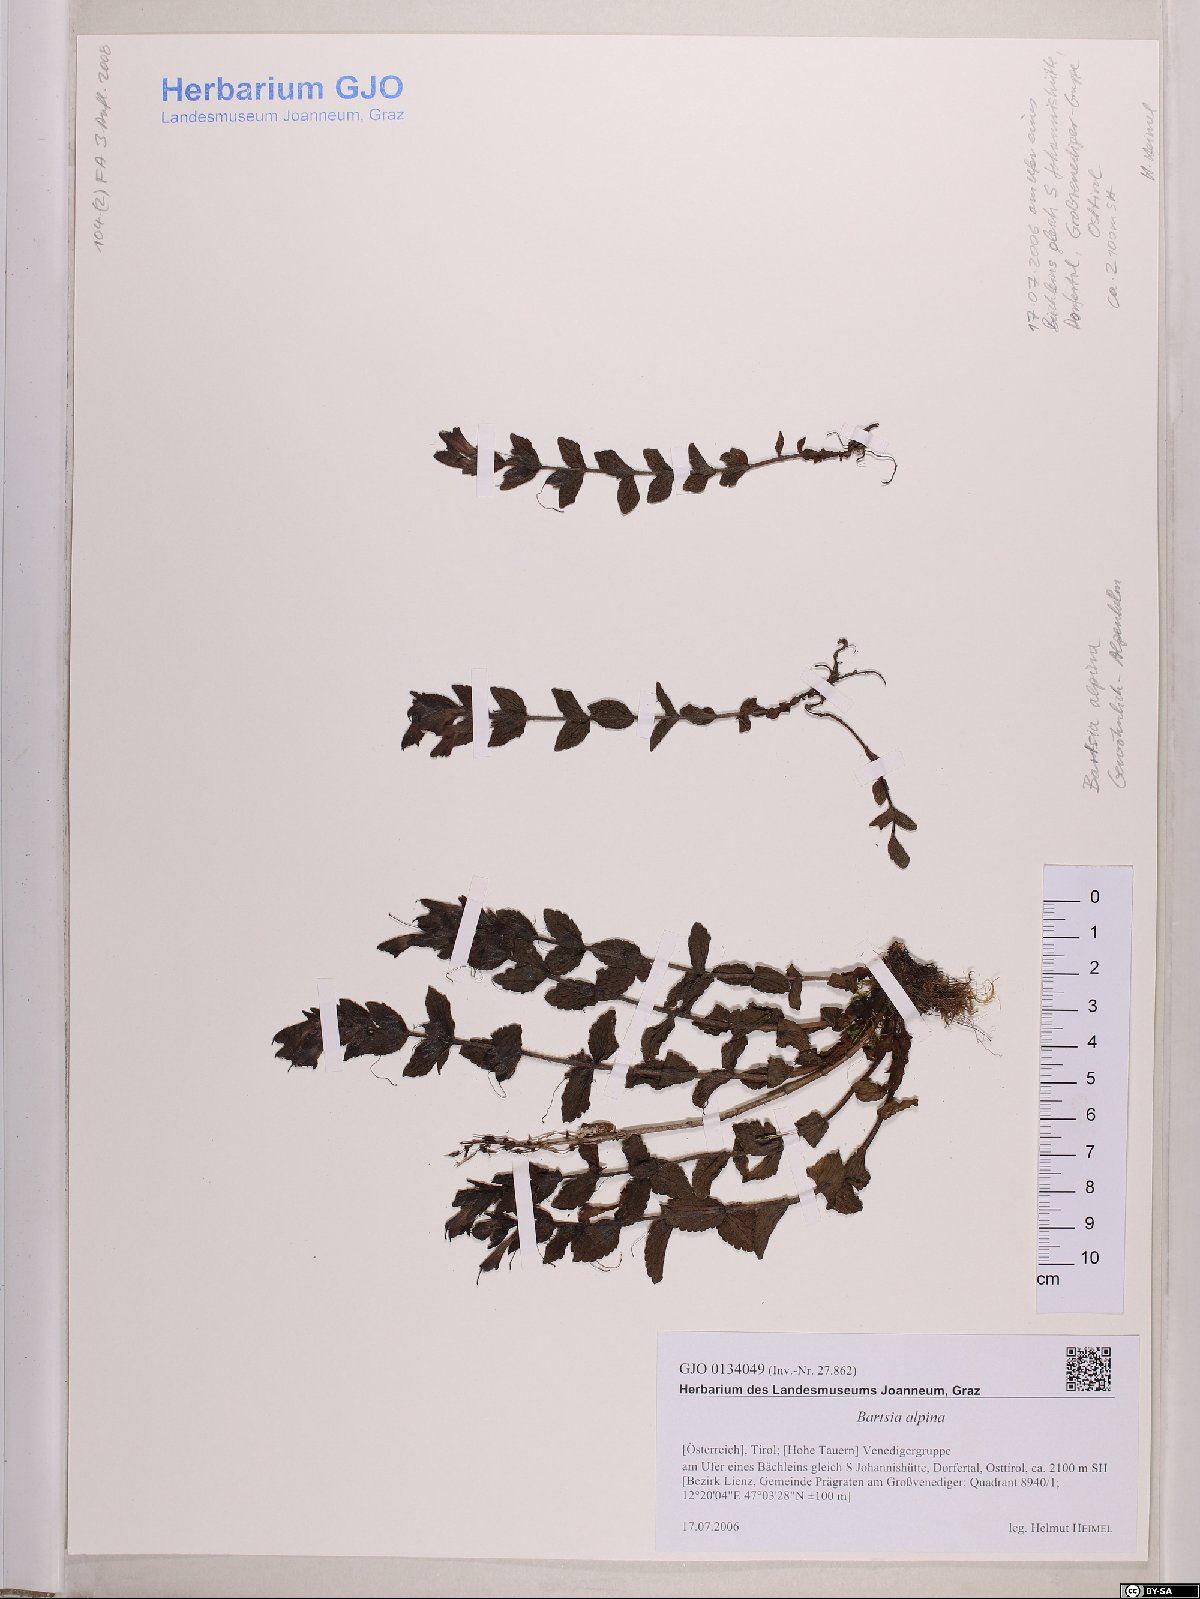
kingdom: Plantae
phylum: Tracheophyta
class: Magnoliopsida
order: Lamiales
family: Orobanchaceae
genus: Bartsia
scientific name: Bartsia alpina
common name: Alpine bartsia
